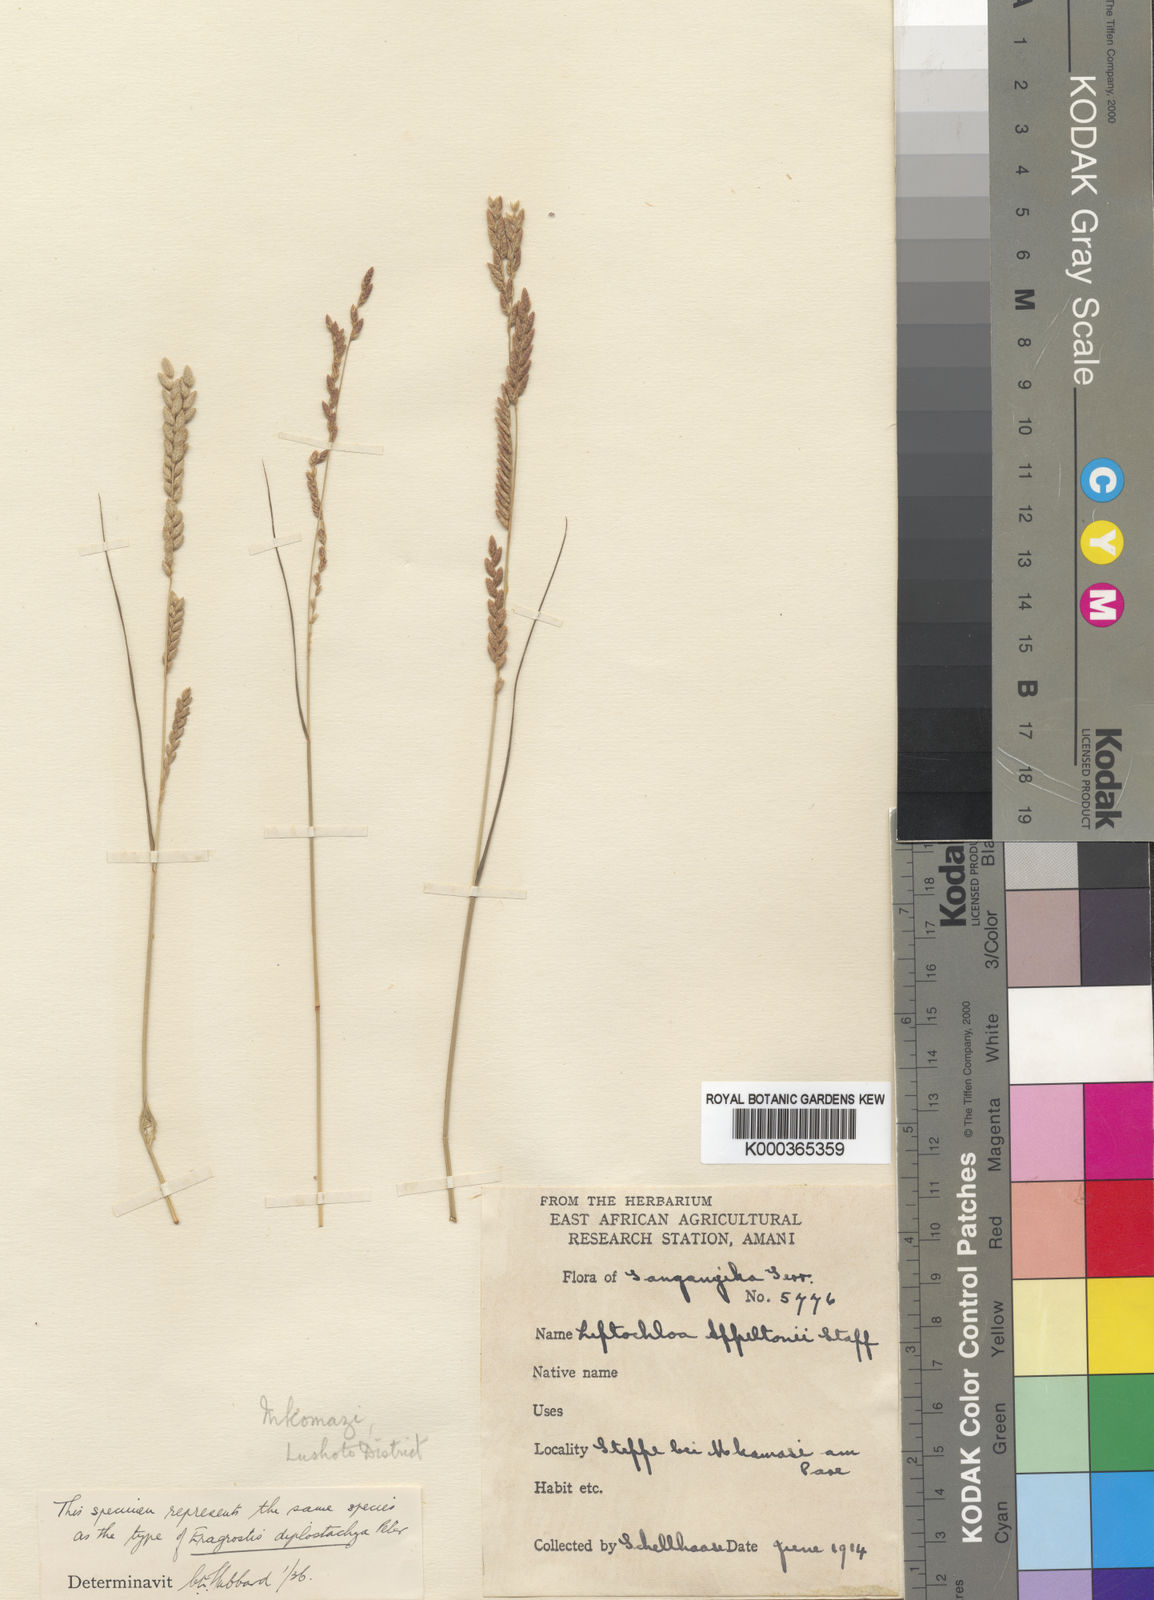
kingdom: Plantae
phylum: Tracheophyta
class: Liliopsida
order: Poales
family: Poaceae
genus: Disakisperma
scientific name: Disakisperma yemenicum
